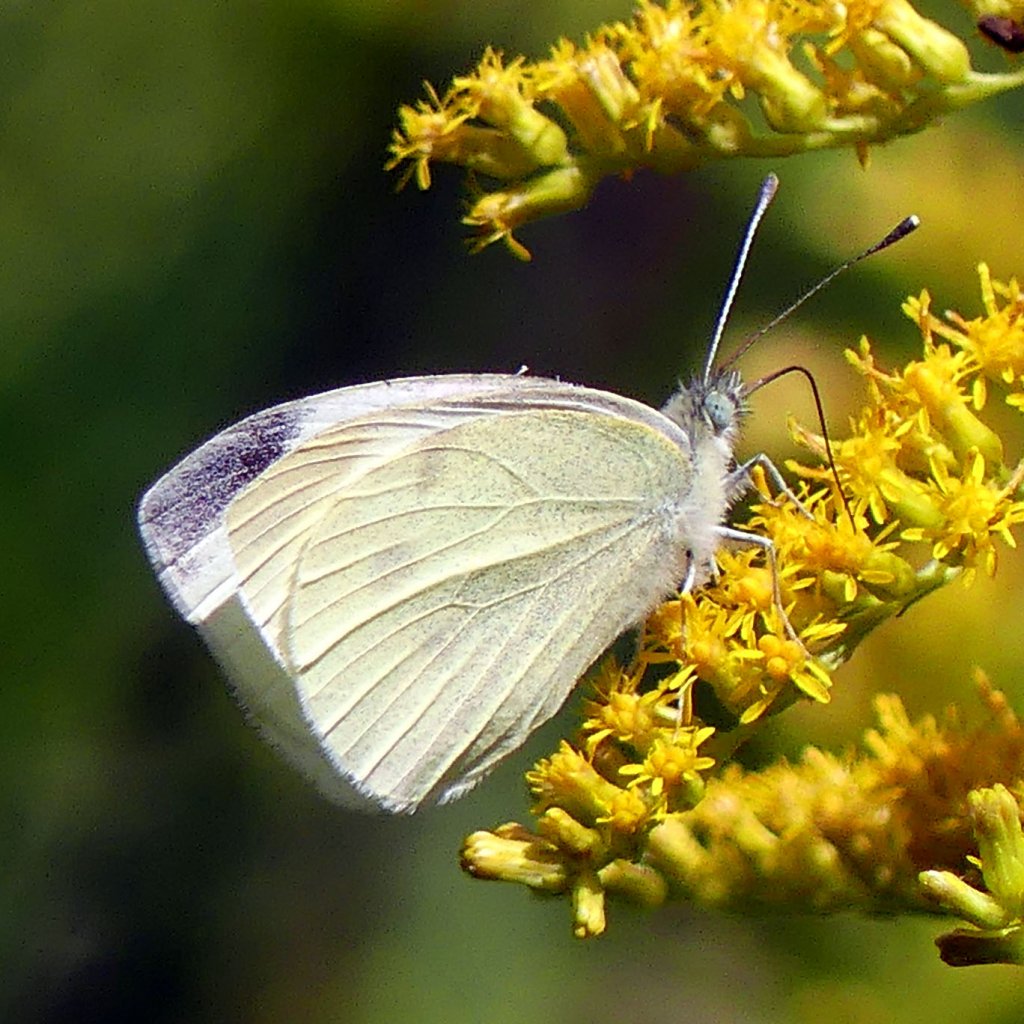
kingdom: Animalia
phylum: Arthropoda
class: Insecta
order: Lepidoptera
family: Pieridae
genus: Pieris
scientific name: Pieris rapae
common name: Cabbage White
